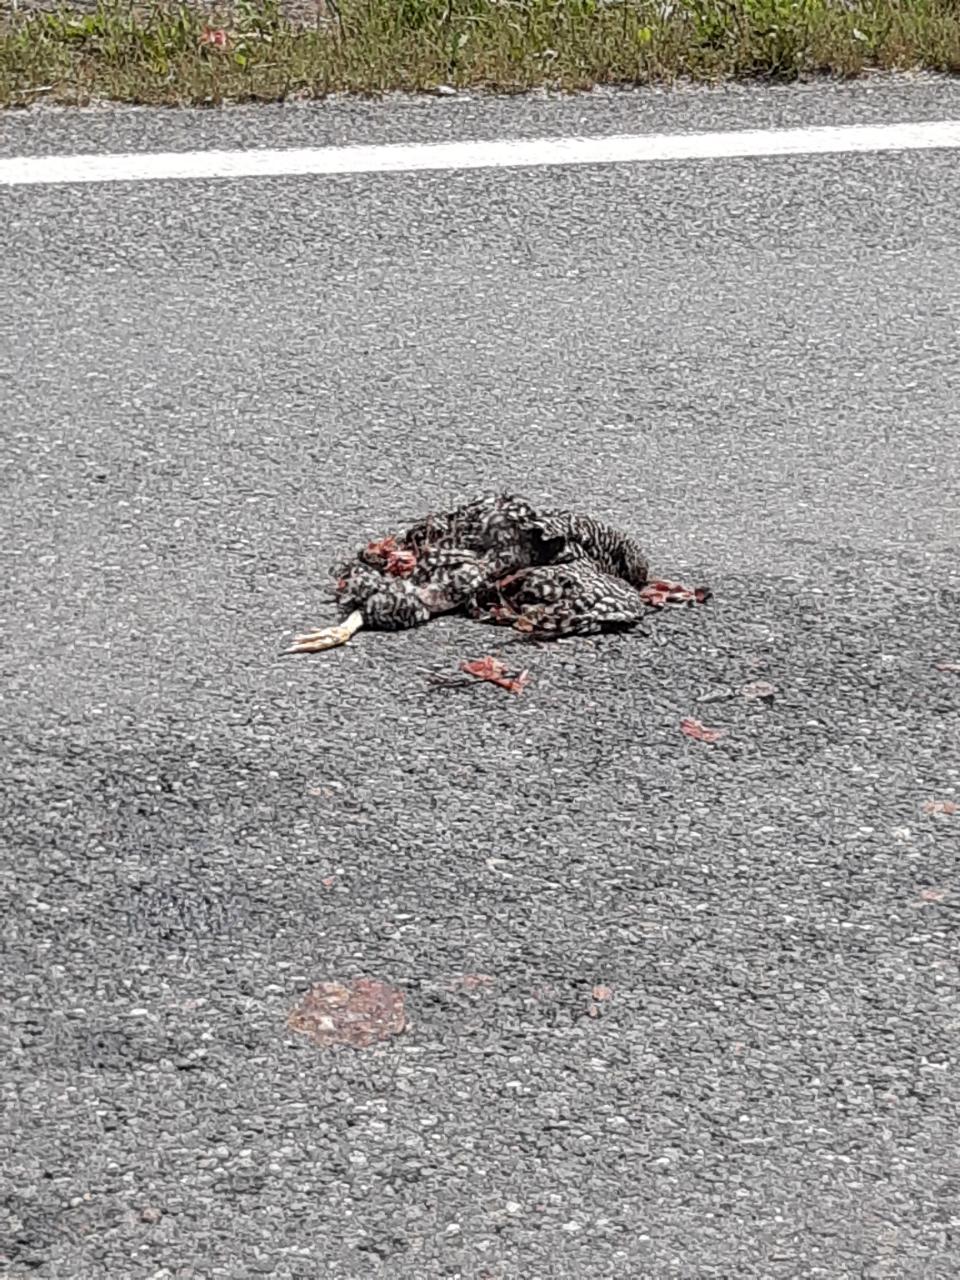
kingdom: Animalia
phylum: Chordata
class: Aves
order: Galliformes
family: Phasianidae
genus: Gallus
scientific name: Gallus gallus
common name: Red junglefowl
